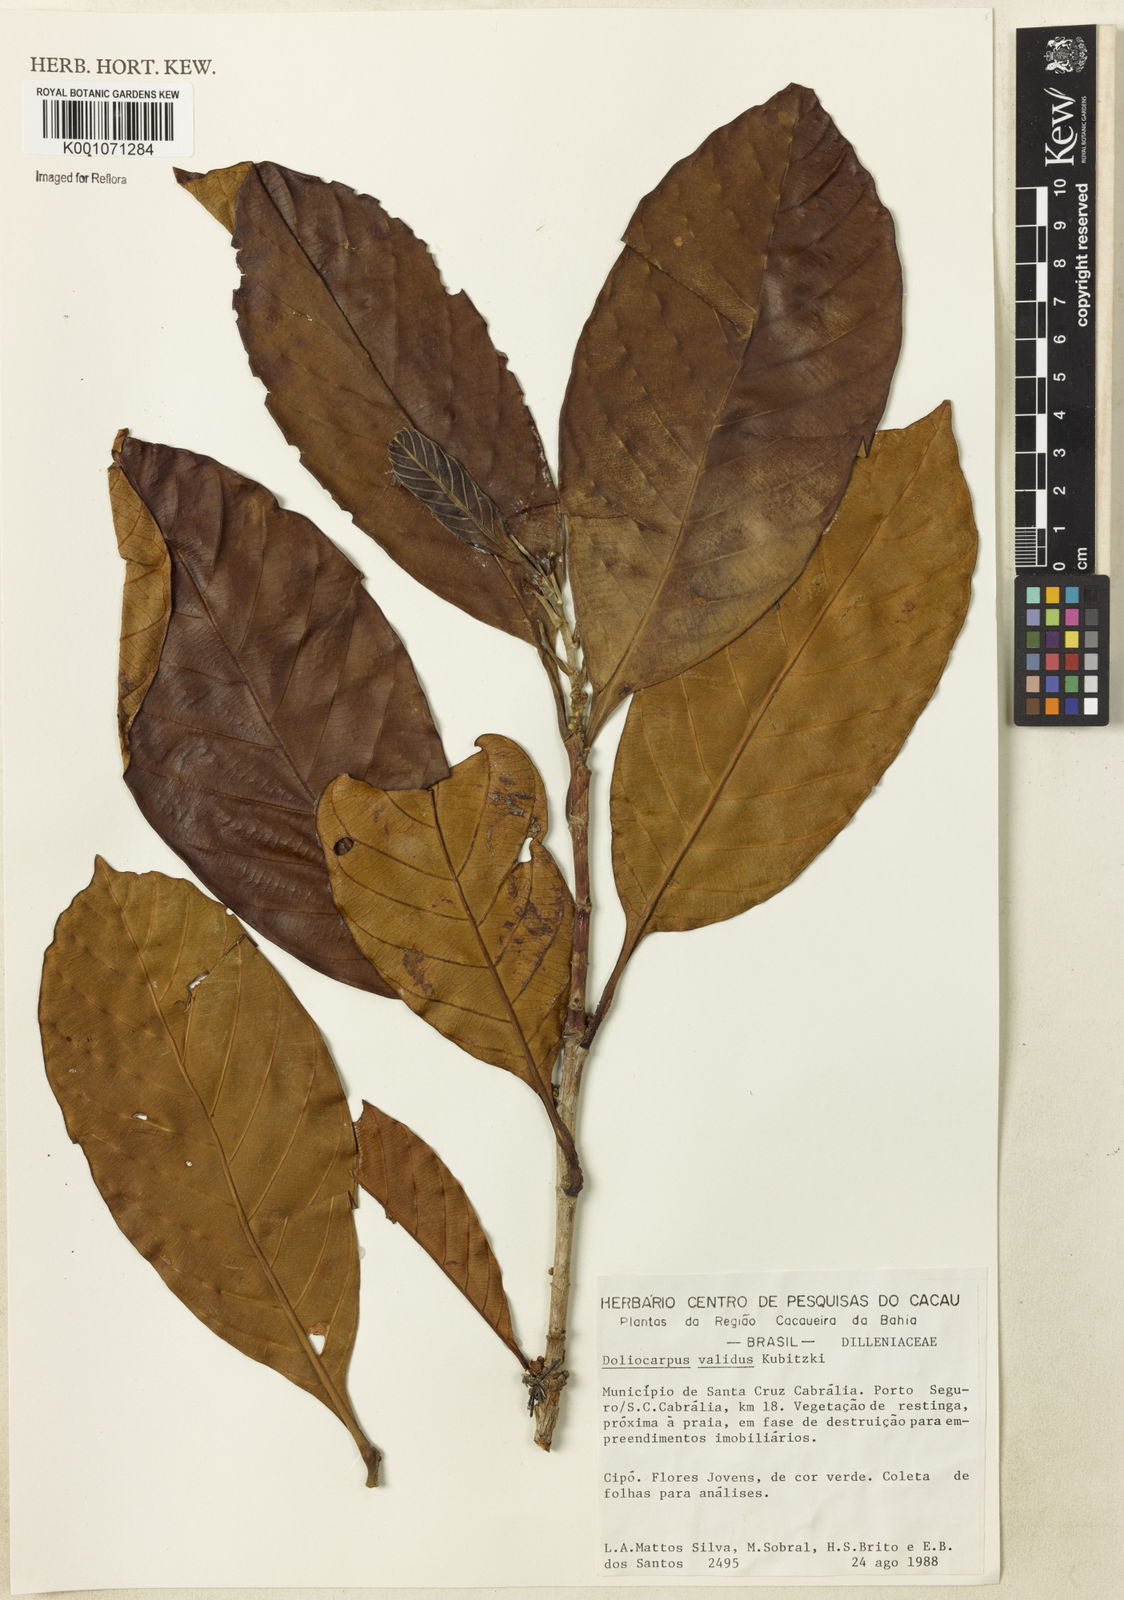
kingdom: Plantae
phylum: Tracheophyta
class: Magnoliopsida
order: Dilleniales
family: Dilleniaceae
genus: Doliocarpus
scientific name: Doliocarpus validus
